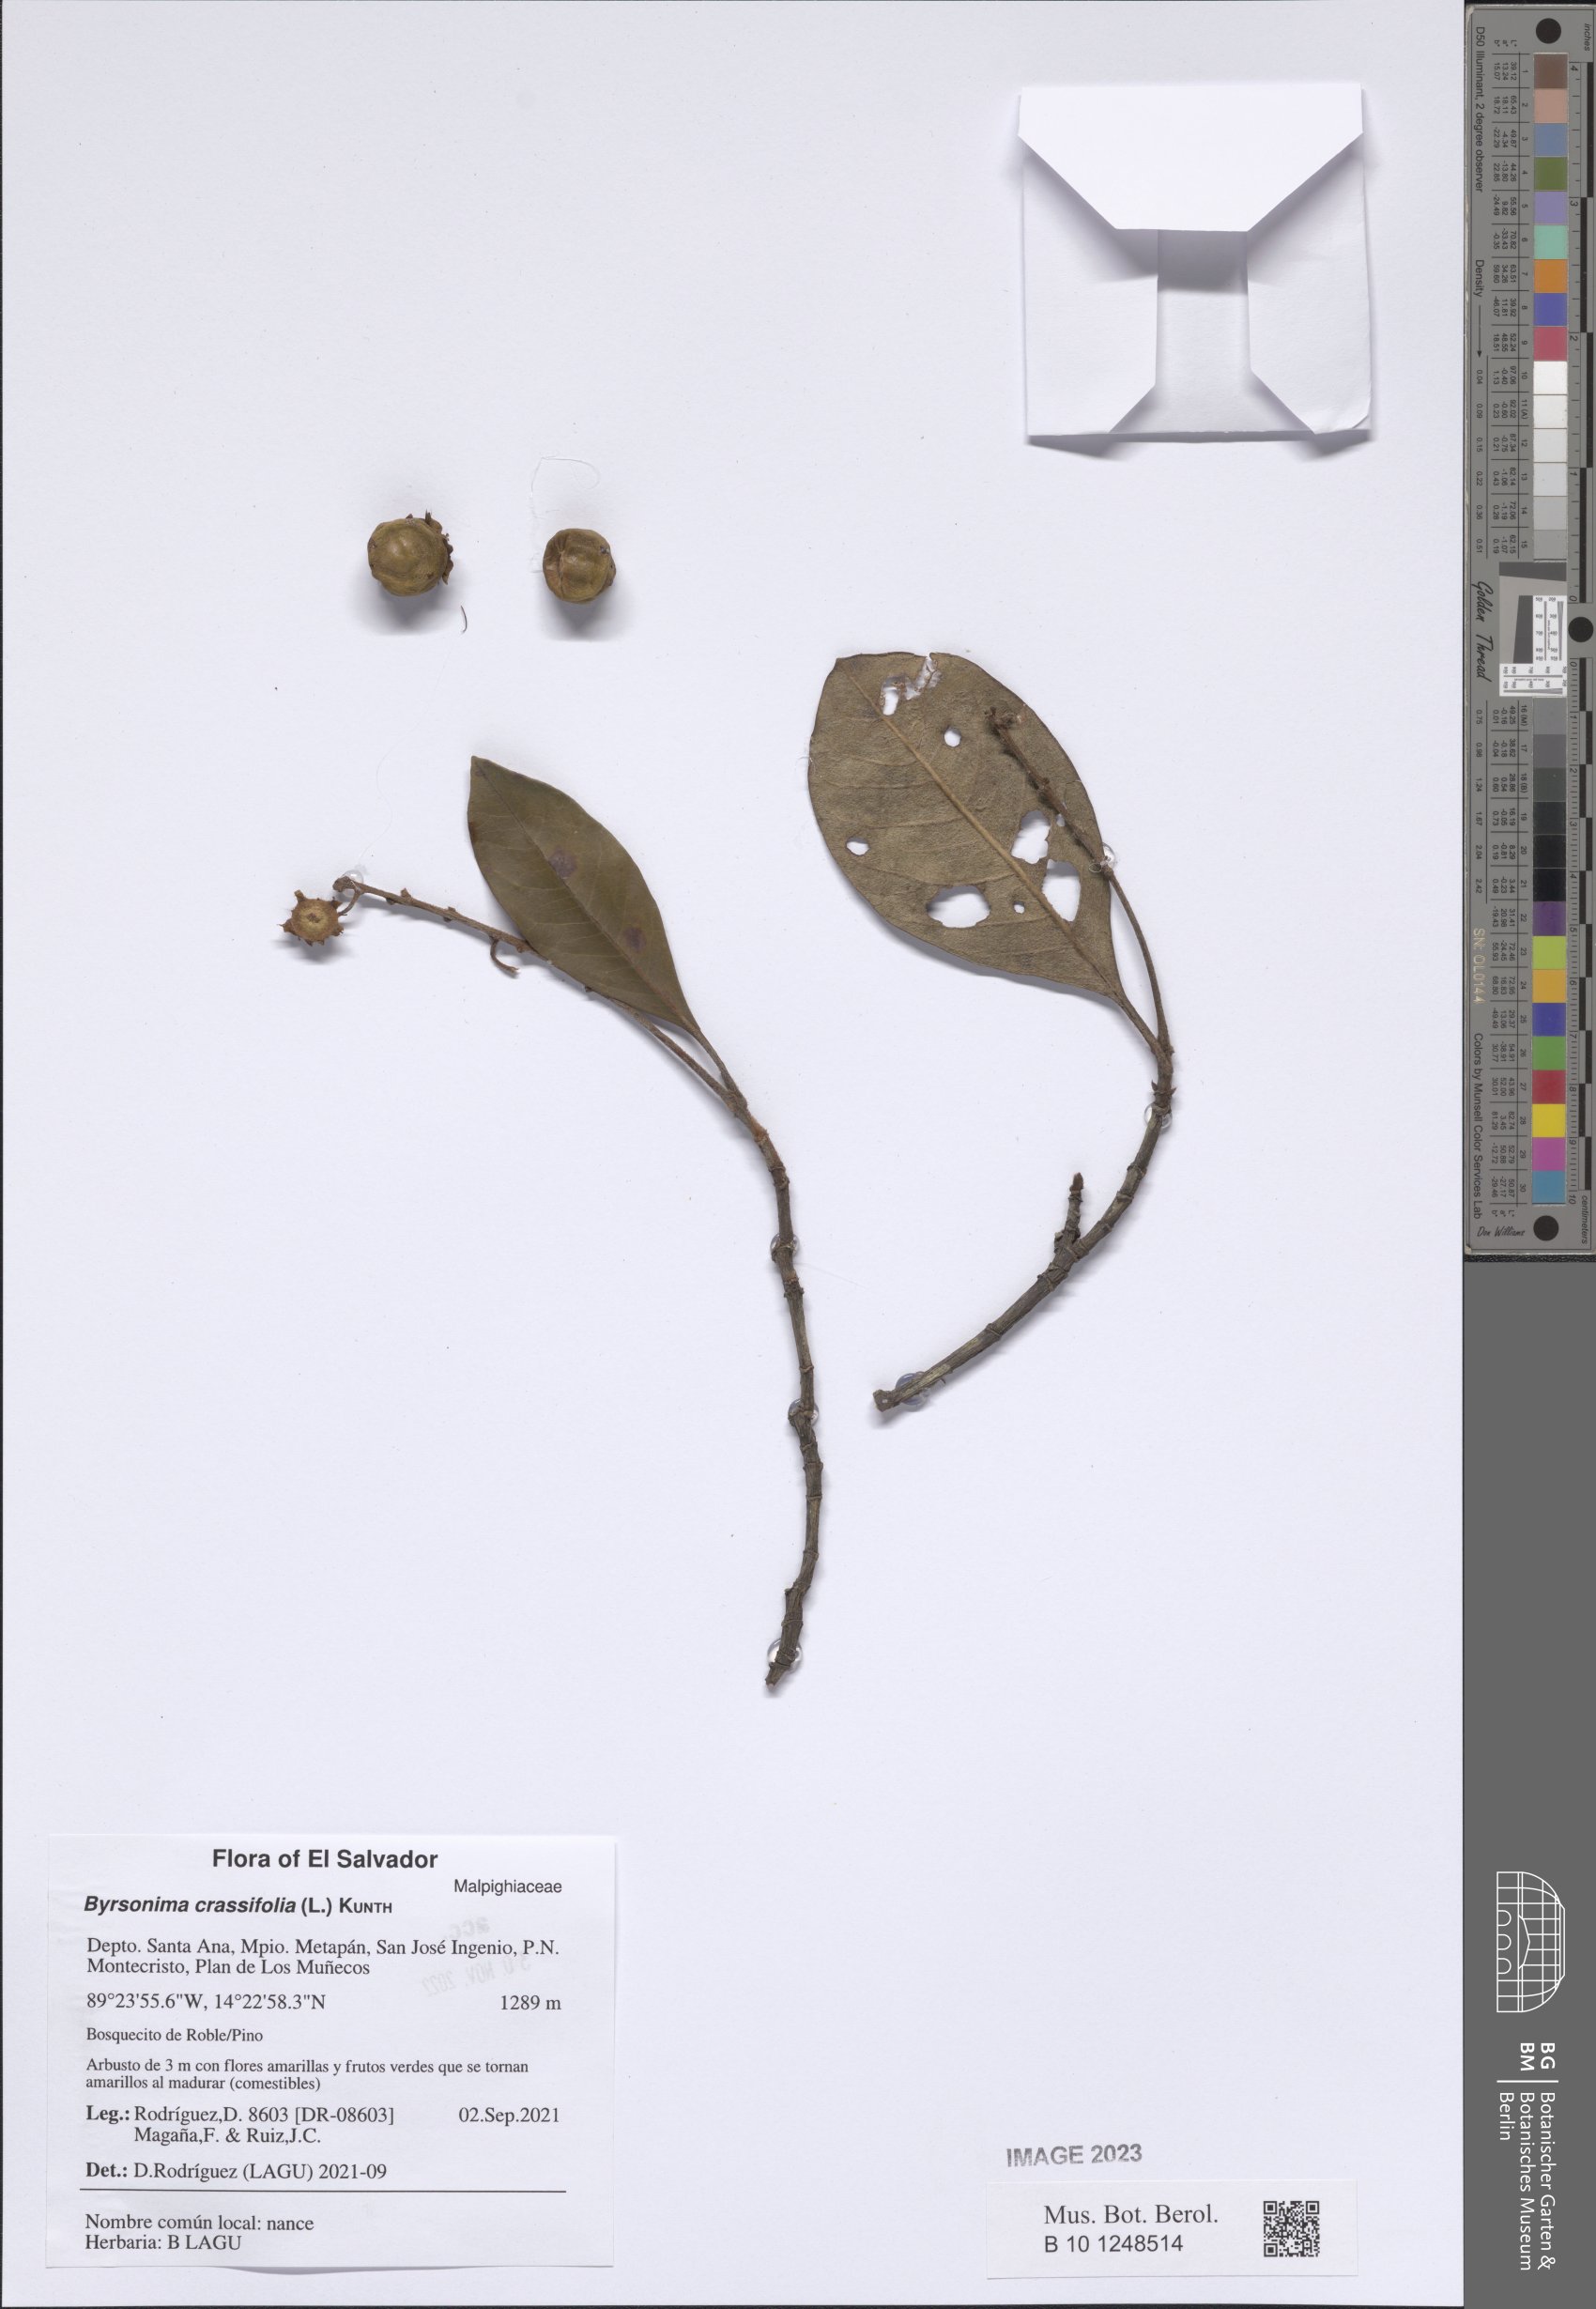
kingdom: Plantae
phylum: Tracheophyta
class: Magnoliopsida
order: Malpighiales
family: Malpighiaceae
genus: Byrsonima
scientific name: Byrsonima crassifolia
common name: Golden spoon
